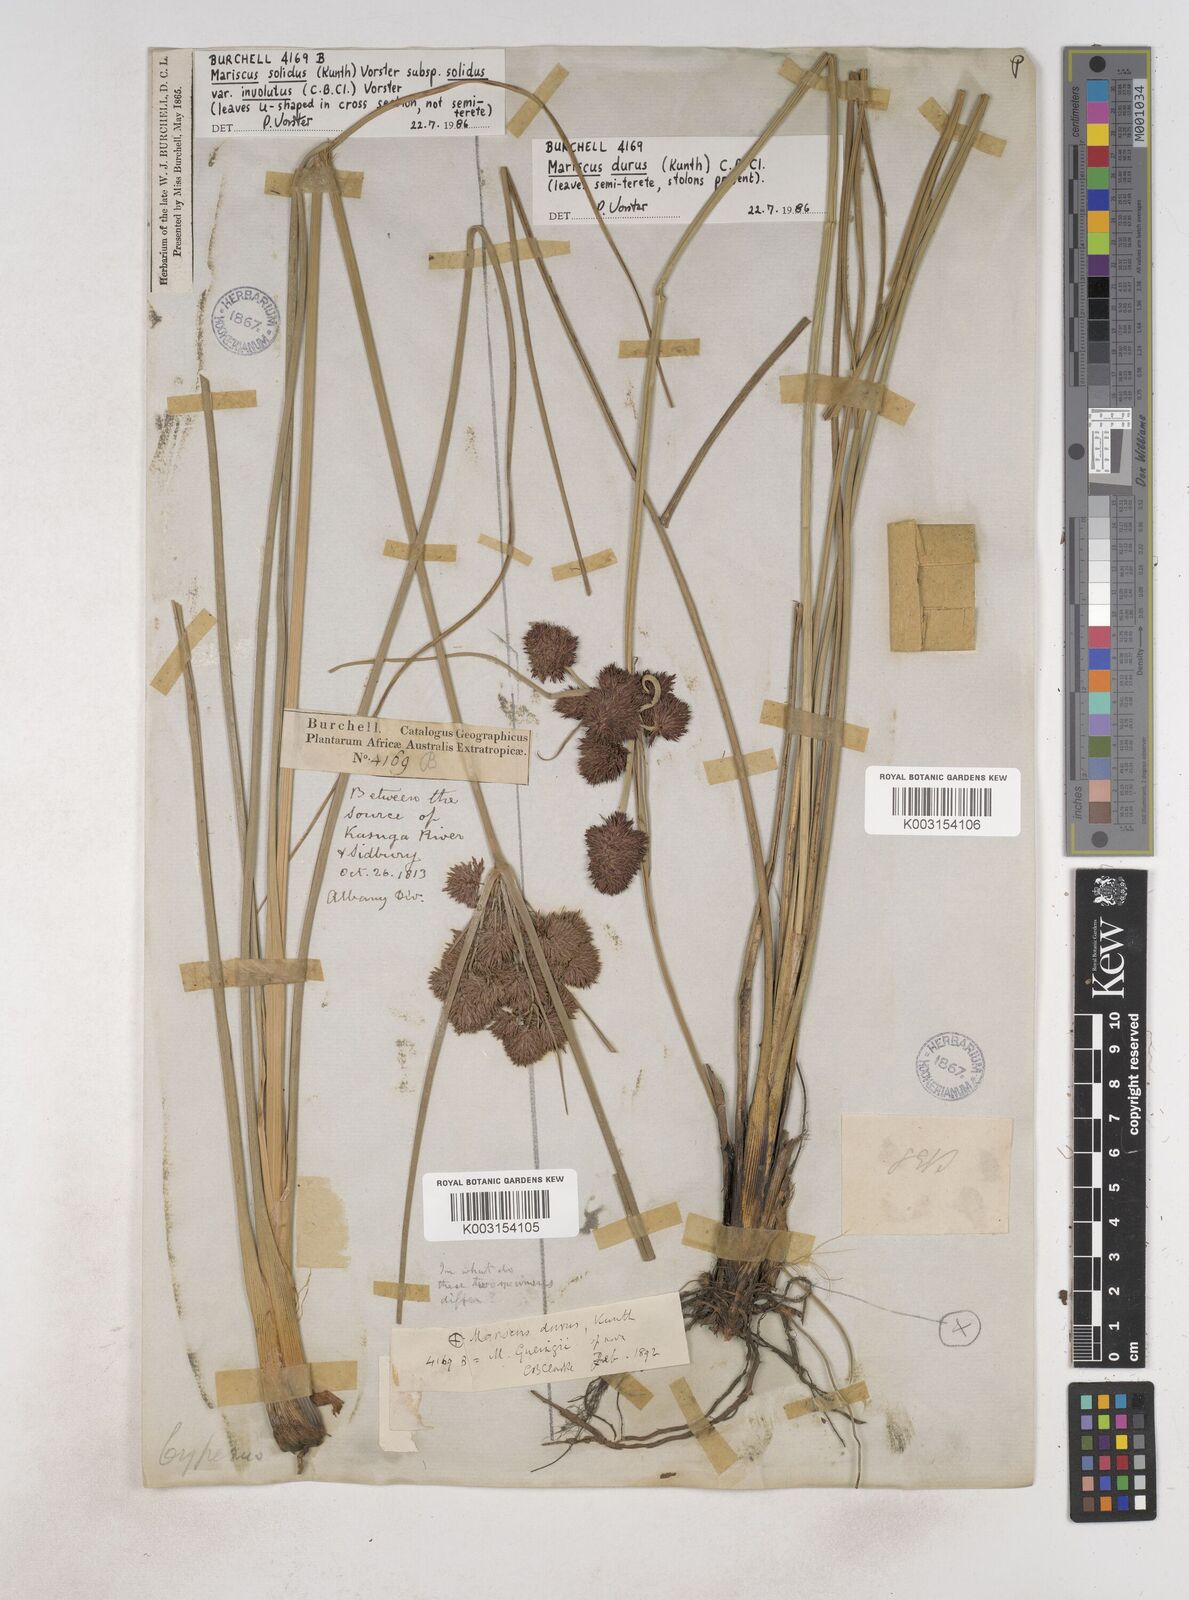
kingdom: Plantae
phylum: Tracheophyta
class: Liliopsida
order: Poales
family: Cyperaceae
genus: Cyperus
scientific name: Cyperus durus
